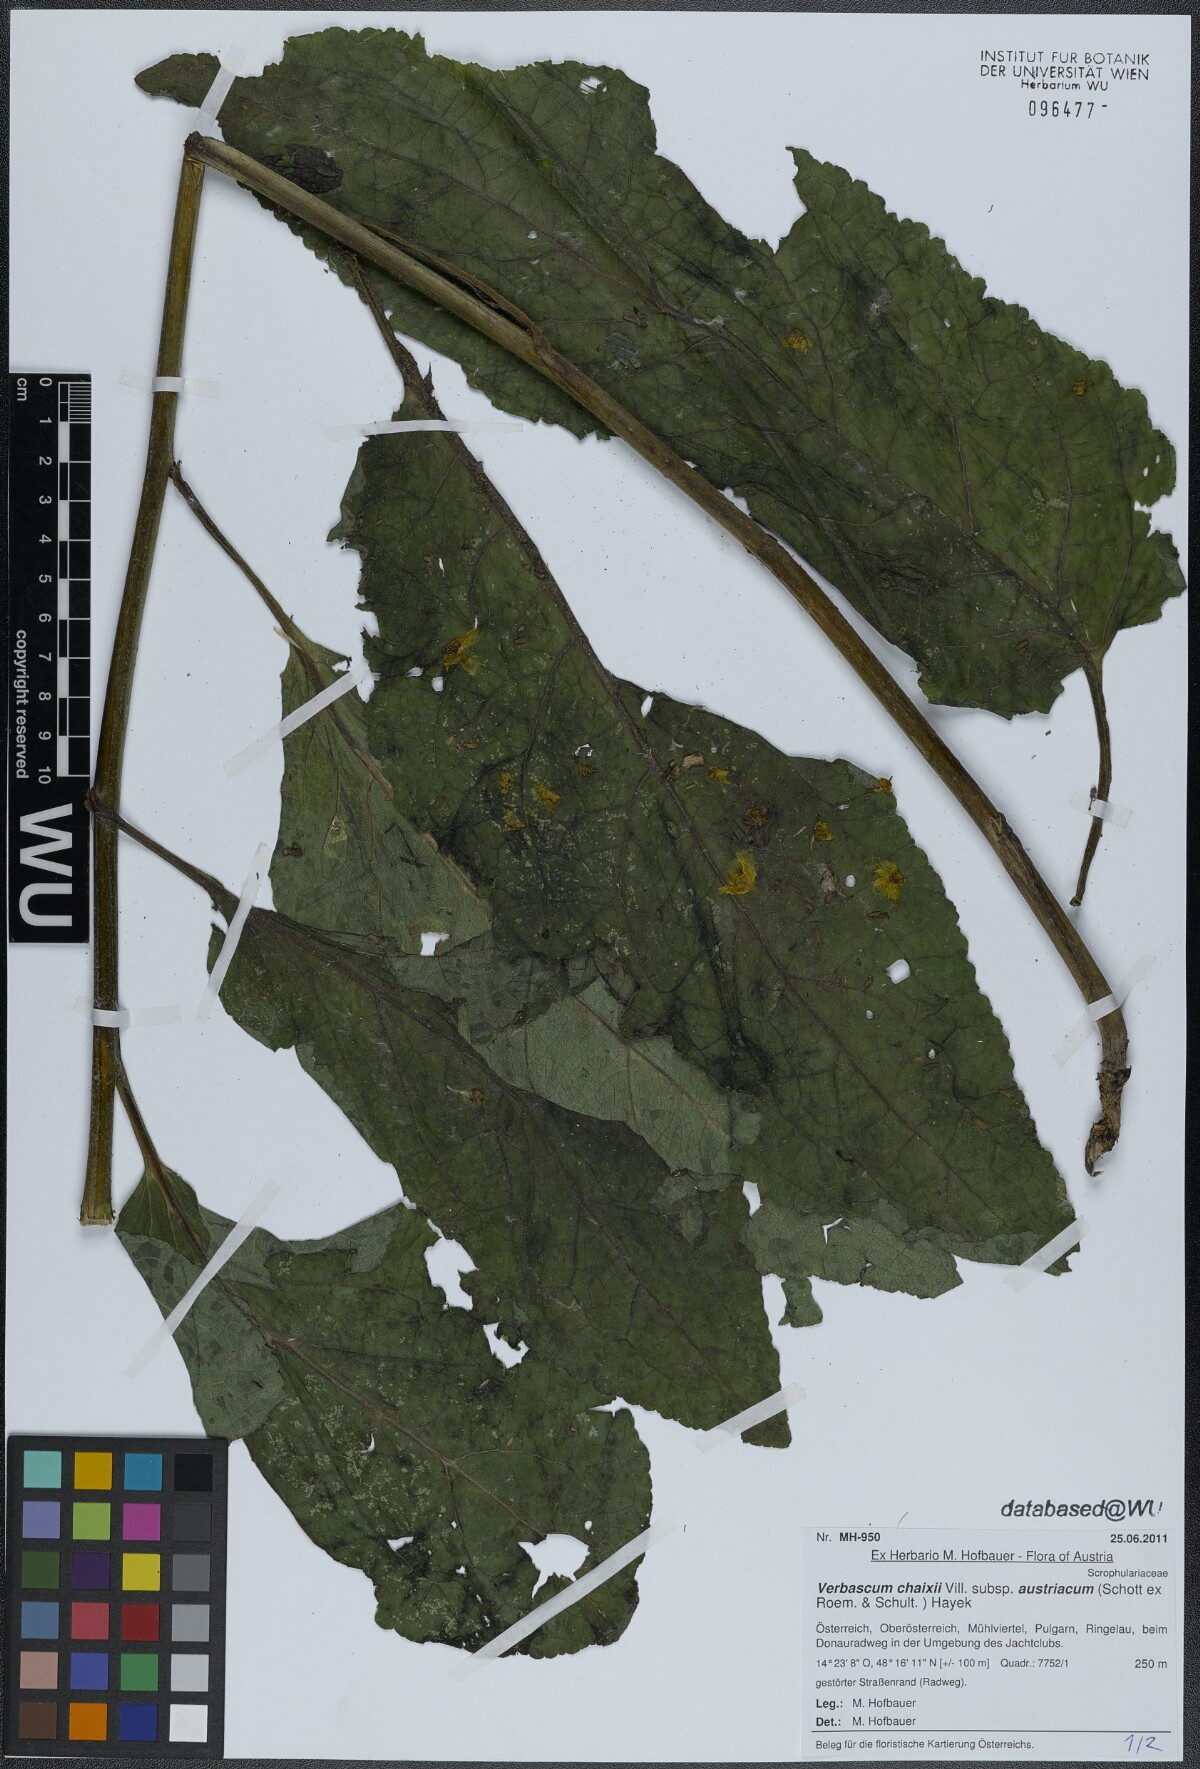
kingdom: Plantae
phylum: Tracheophyta
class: Magnoliopsida
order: Lamiales
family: Scrophulariaceae
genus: Verbascum
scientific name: Verbascum chaixii
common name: Nettle-leaved mullein
